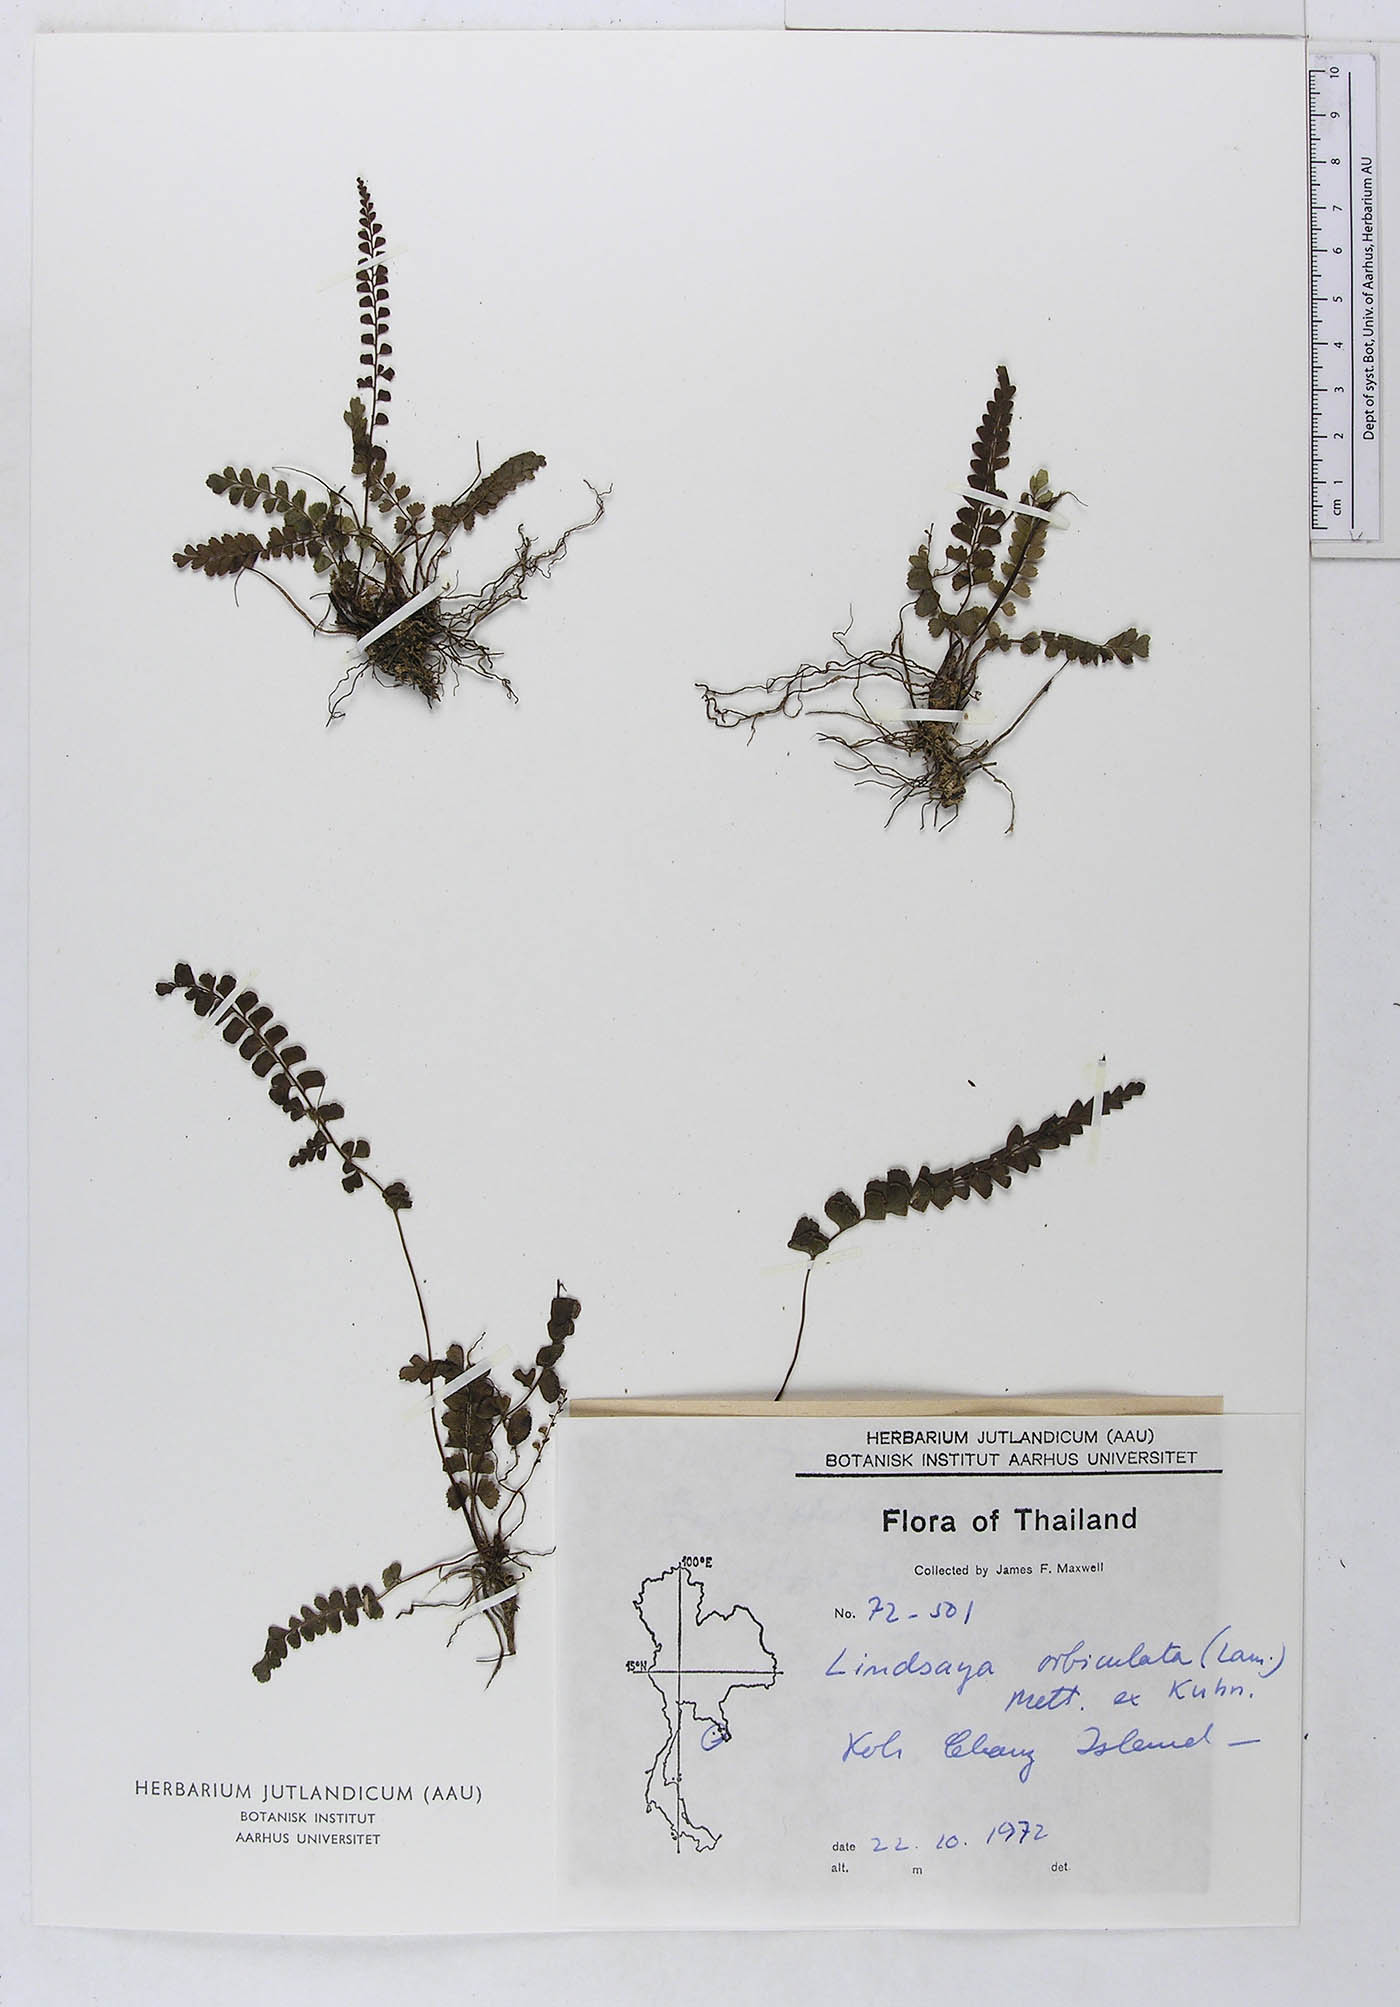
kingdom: Plantae
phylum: Tracheophyta
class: Polypodiopsida
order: Polypodiales
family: Lindsaeaceae
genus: Lindsaea
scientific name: Lindsaea orbiculata
